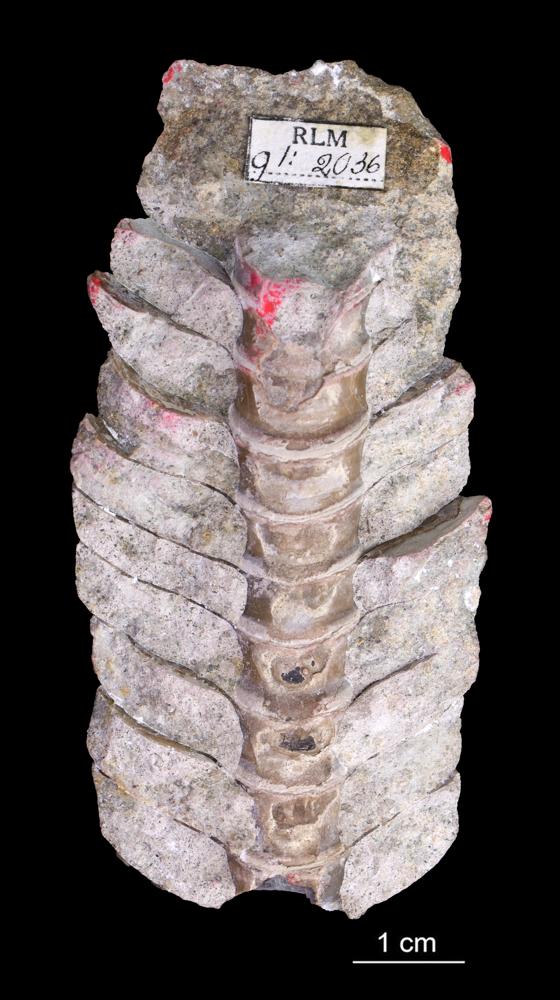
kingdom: Animalia
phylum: Mollusca
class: Cephalopoda
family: Endoceratidae
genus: Endoceras
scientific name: Endoceras
